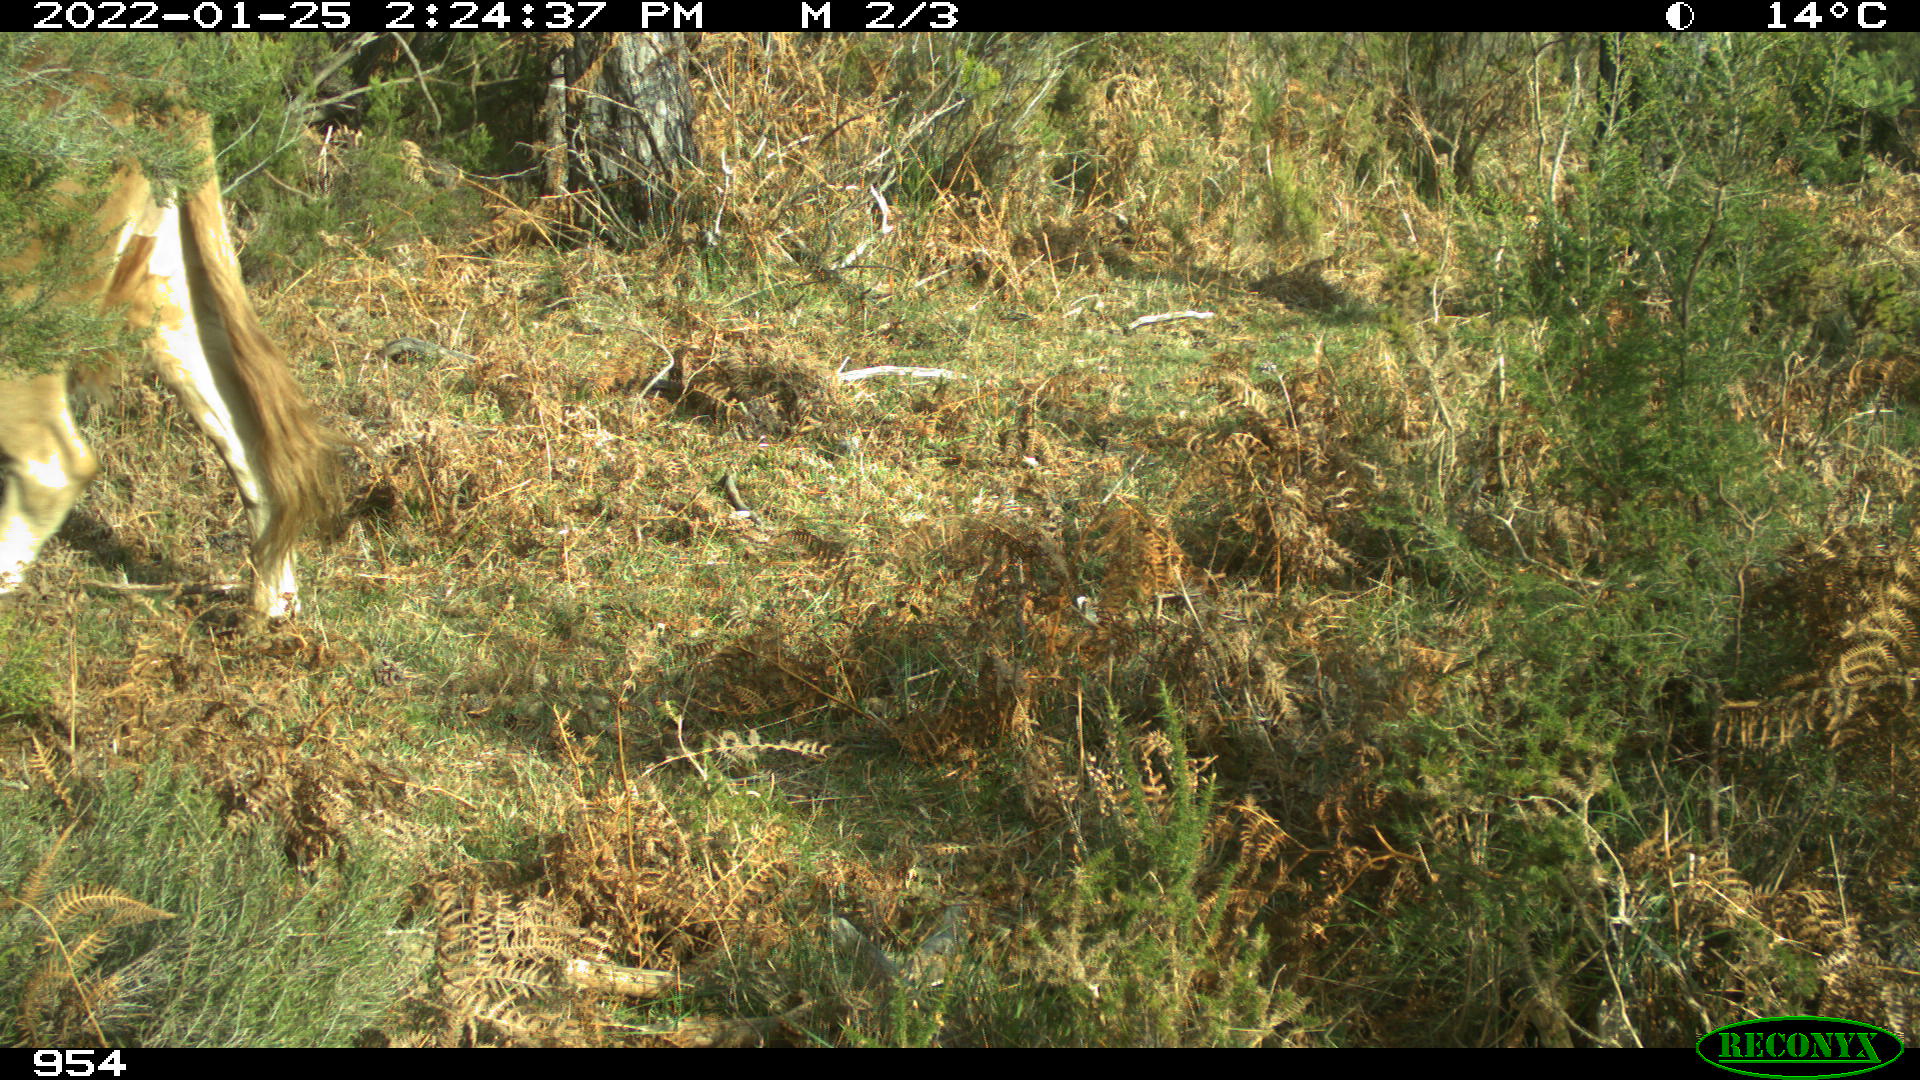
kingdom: Animalia
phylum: Chordata
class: Mammalia
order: Carnivora
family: Canidae
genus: Canis
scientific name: Canis lupus
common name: Gray wolf
